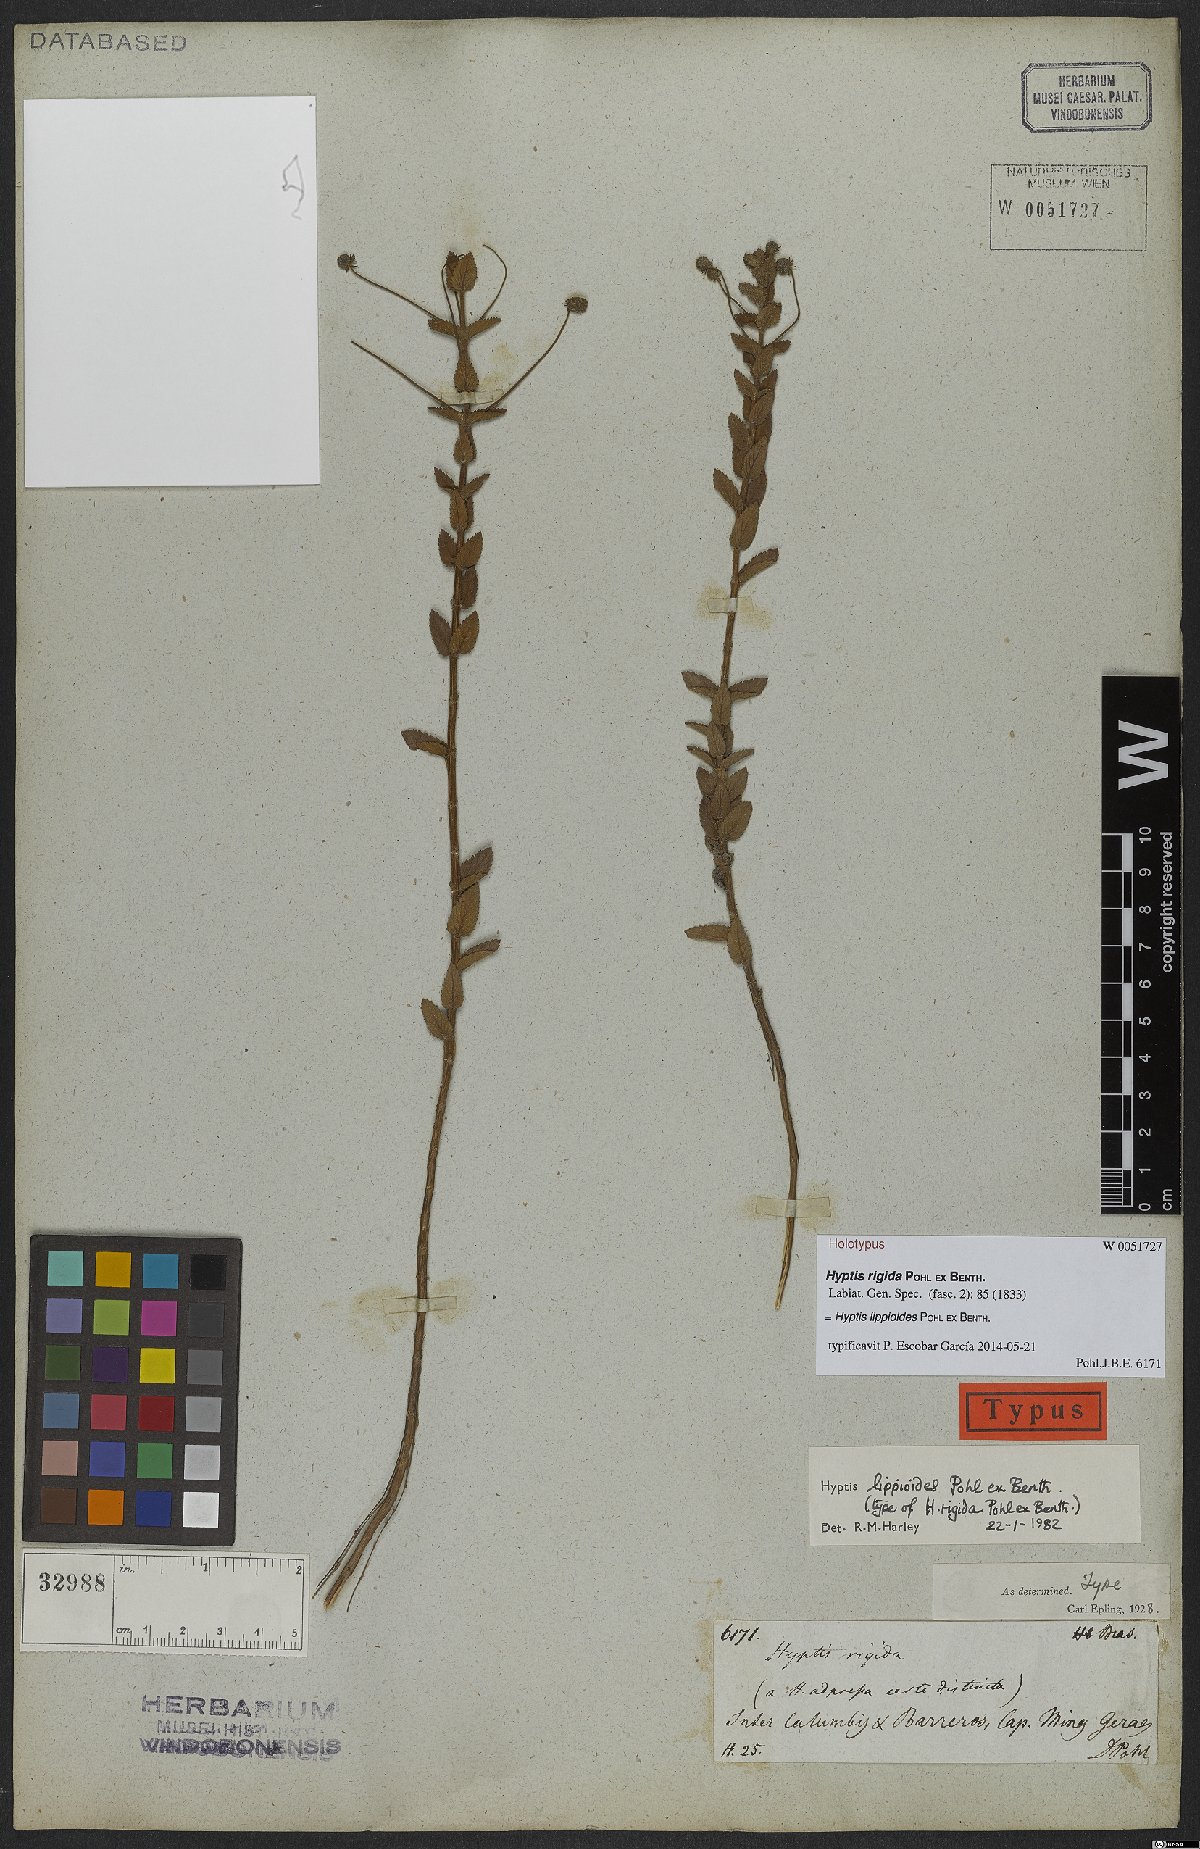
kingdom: Plantae
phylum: Tracheophyta
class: Magnoliopsida
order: Lamiales
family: Lamiaceae
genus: Cyanocephalus
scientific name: Cyanocephalus lippioides
